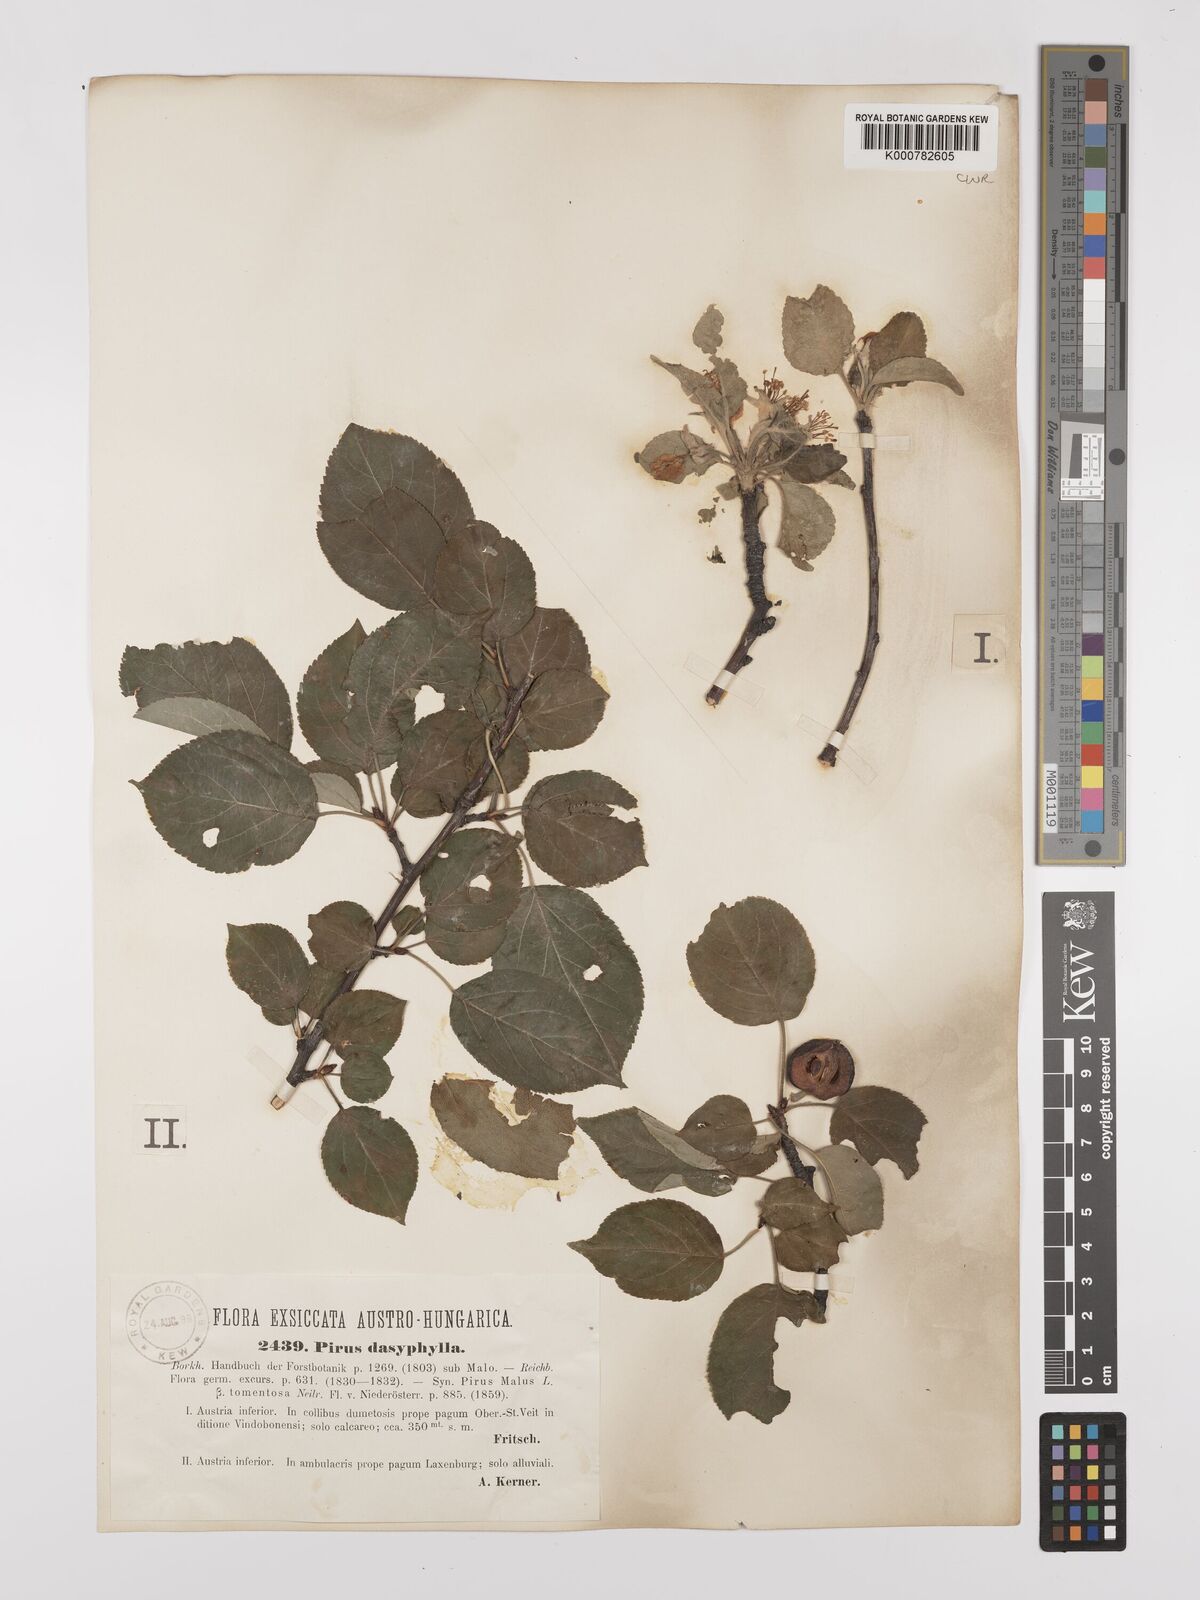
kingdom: Plantae
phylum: Tracheophyta
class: Magnoliopsida
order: Rosales
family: Rosaceae
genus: Malus
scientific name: Malus domestica
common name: Apple
